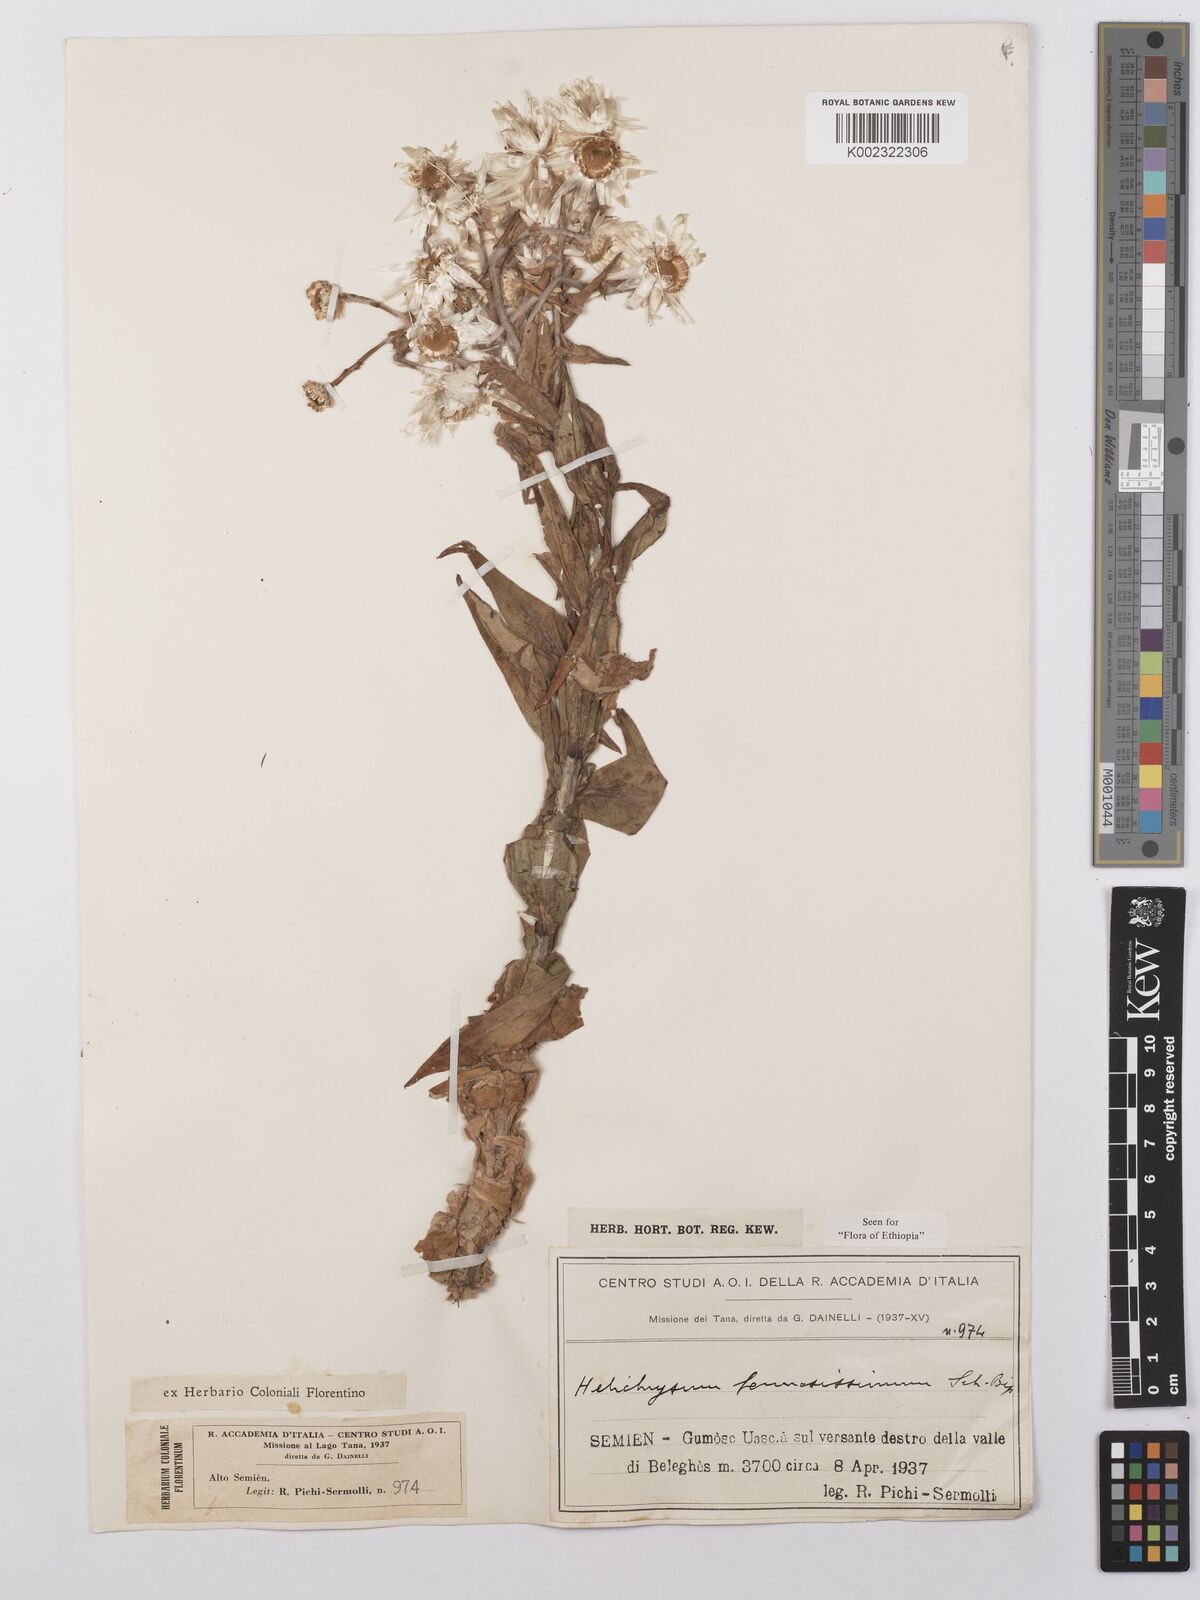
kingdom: Plantae
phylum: Tracheophyta
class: Magnoliopsida
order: Asterales
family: Asteraceae
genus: Helichrysum
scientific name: Helichrysum formosissimum
